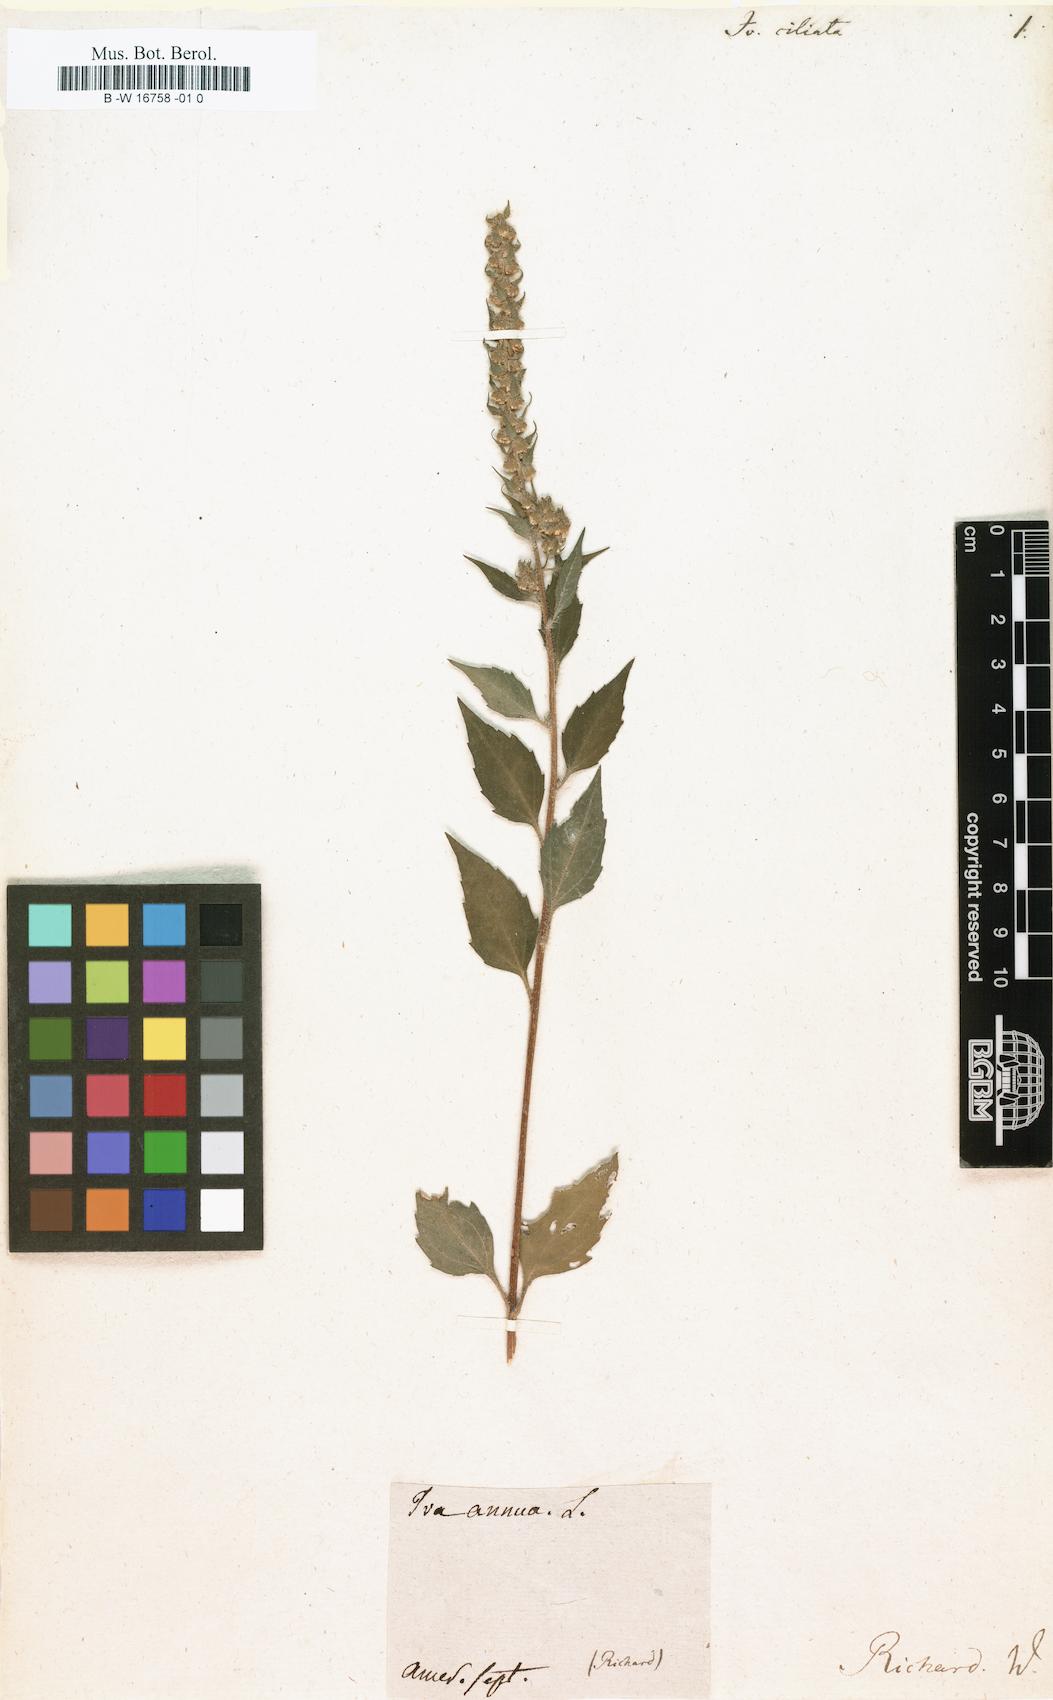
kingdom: Plantae
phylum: Tracheophyta
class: Magnoliopsida
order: Asterales
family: Asteraceae
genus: Iva
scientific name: Iva annua
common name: Marsh-elder
